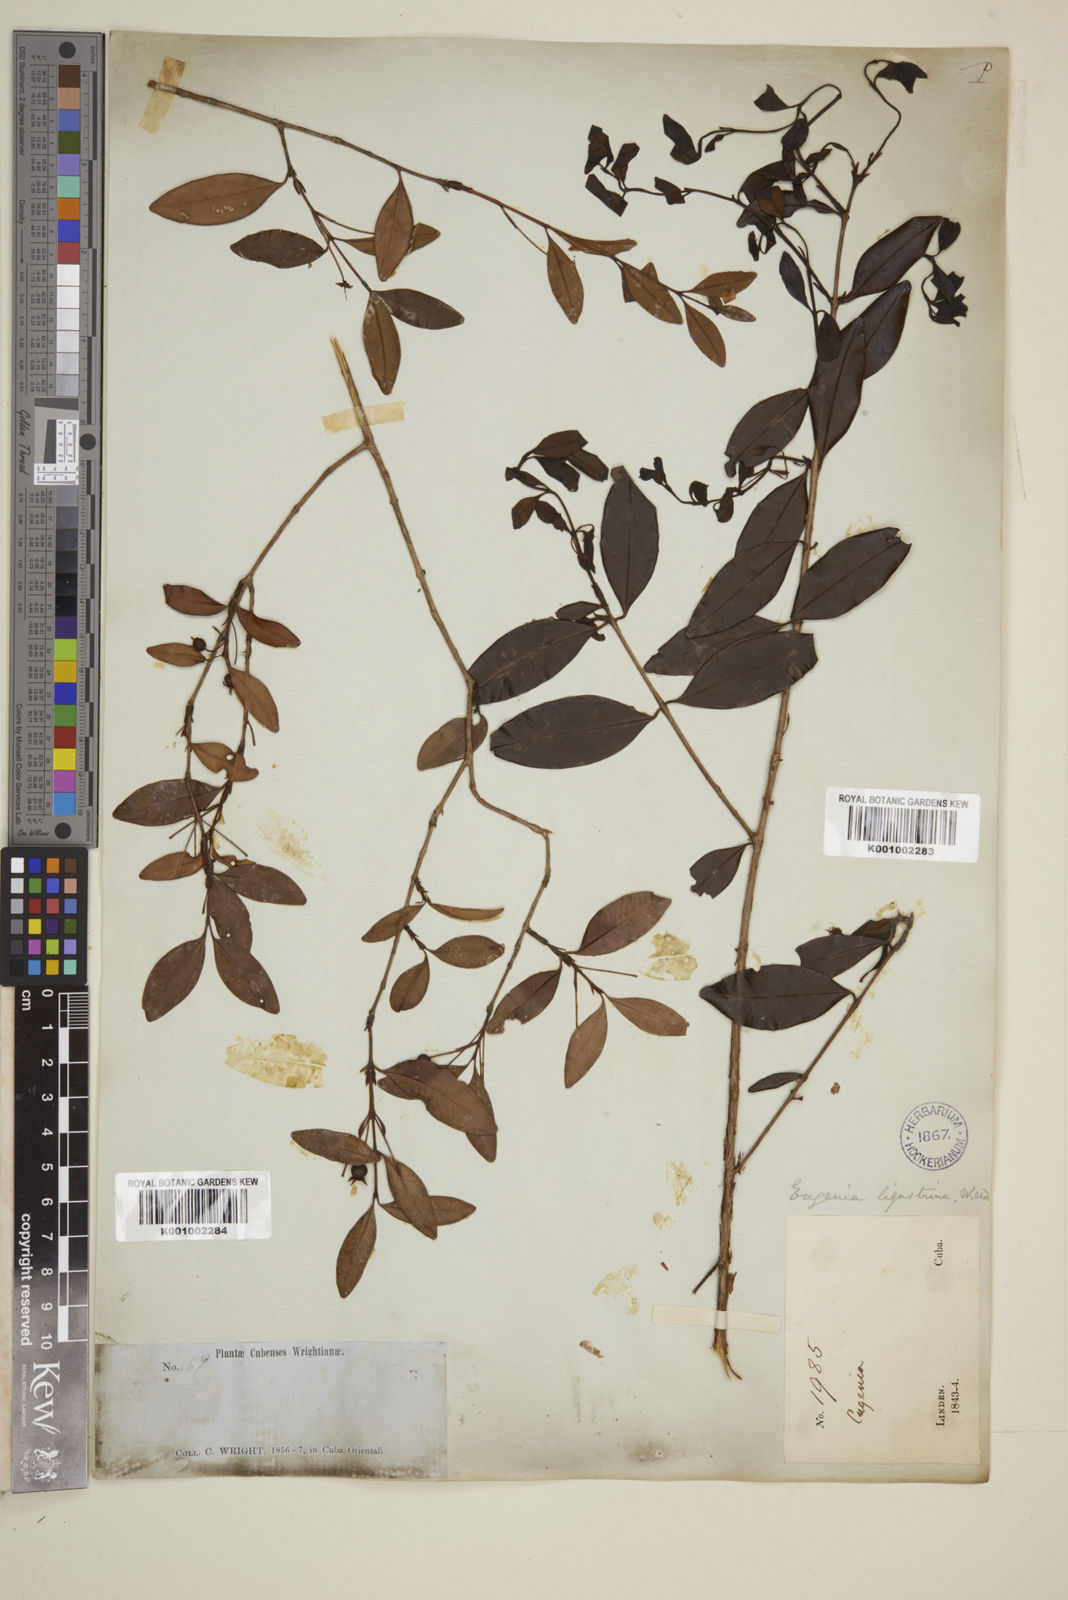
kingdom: Plantae
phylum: Tracheophyta
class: Magnoliopsida
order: Myrtales
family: Myrtaceae
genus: Eugenia
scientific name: Eugenia ligustrina
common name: Privet stopper
